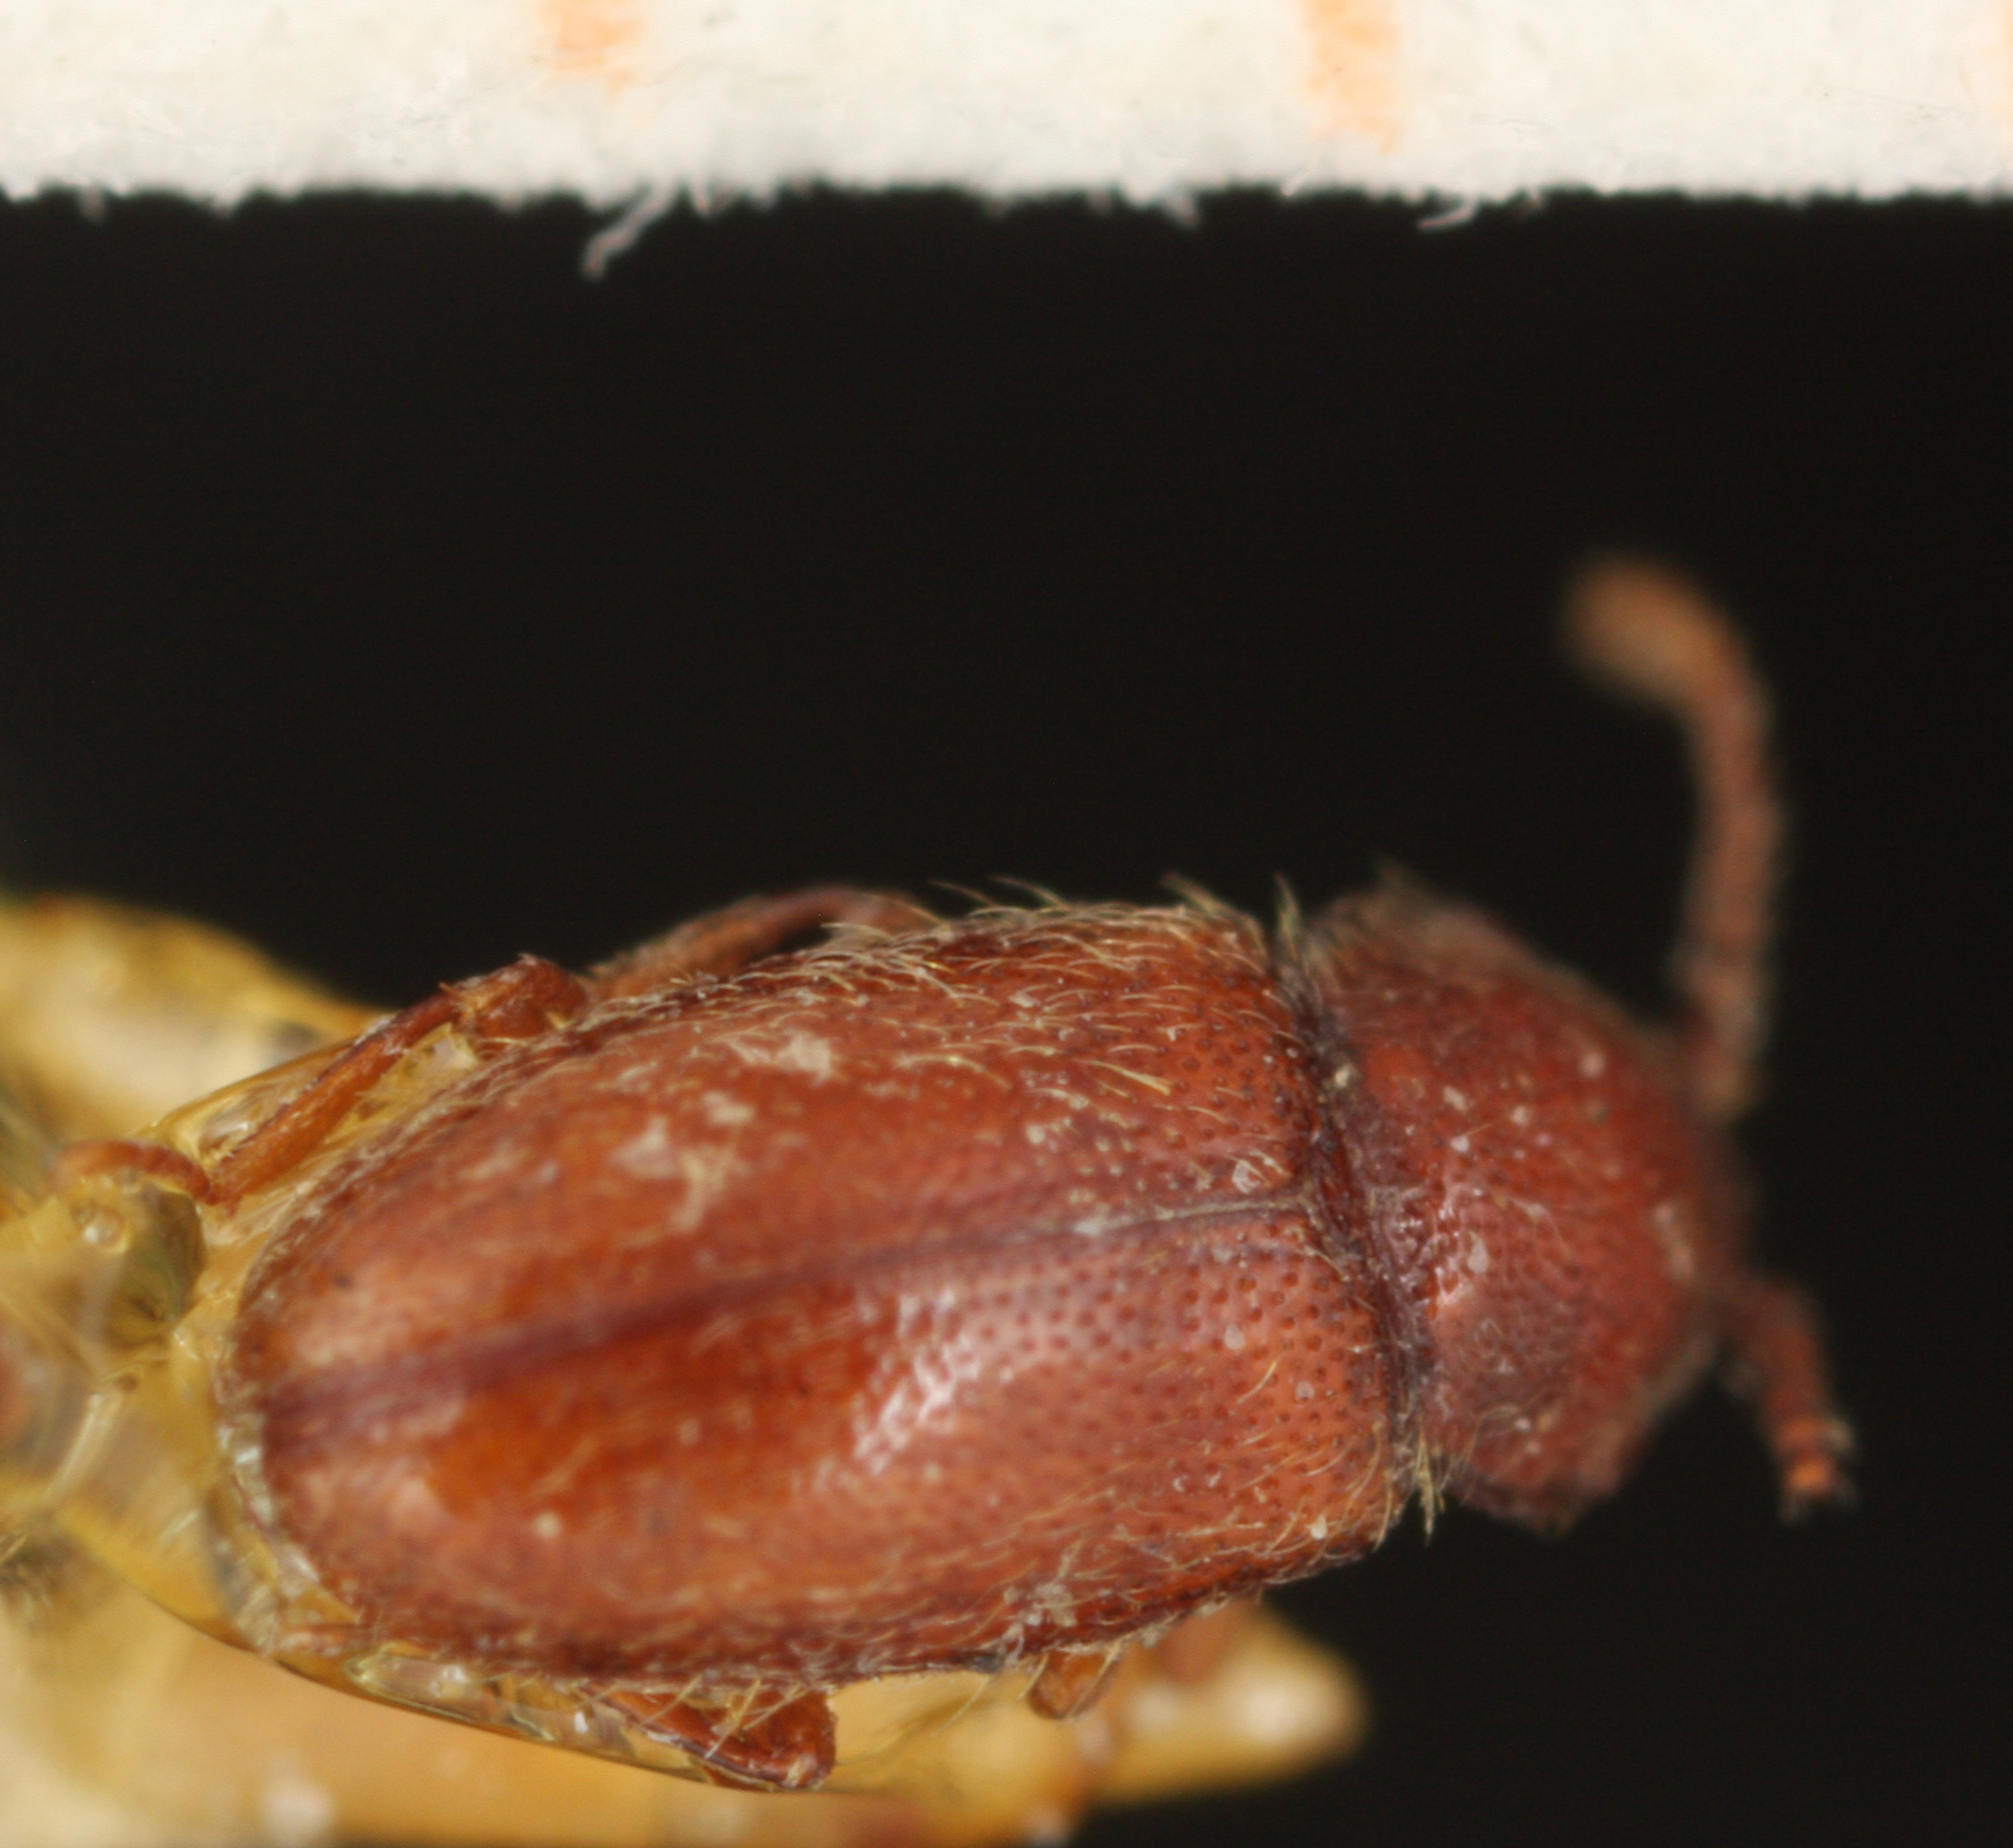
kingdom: Animalia
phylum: Arthropoda
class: Insecta
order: Coleoptera
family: Cryptophagidae
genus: Cryptophagus
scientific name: Cryptophagus setulosus
